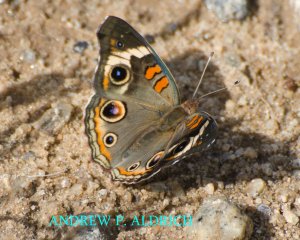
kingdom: Animalia
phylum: Arthropoda
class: Insecta
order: Lepidoptera
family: Nymphalidae
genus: Junonia
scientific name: Junonia coenia
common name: Common Buckeye
